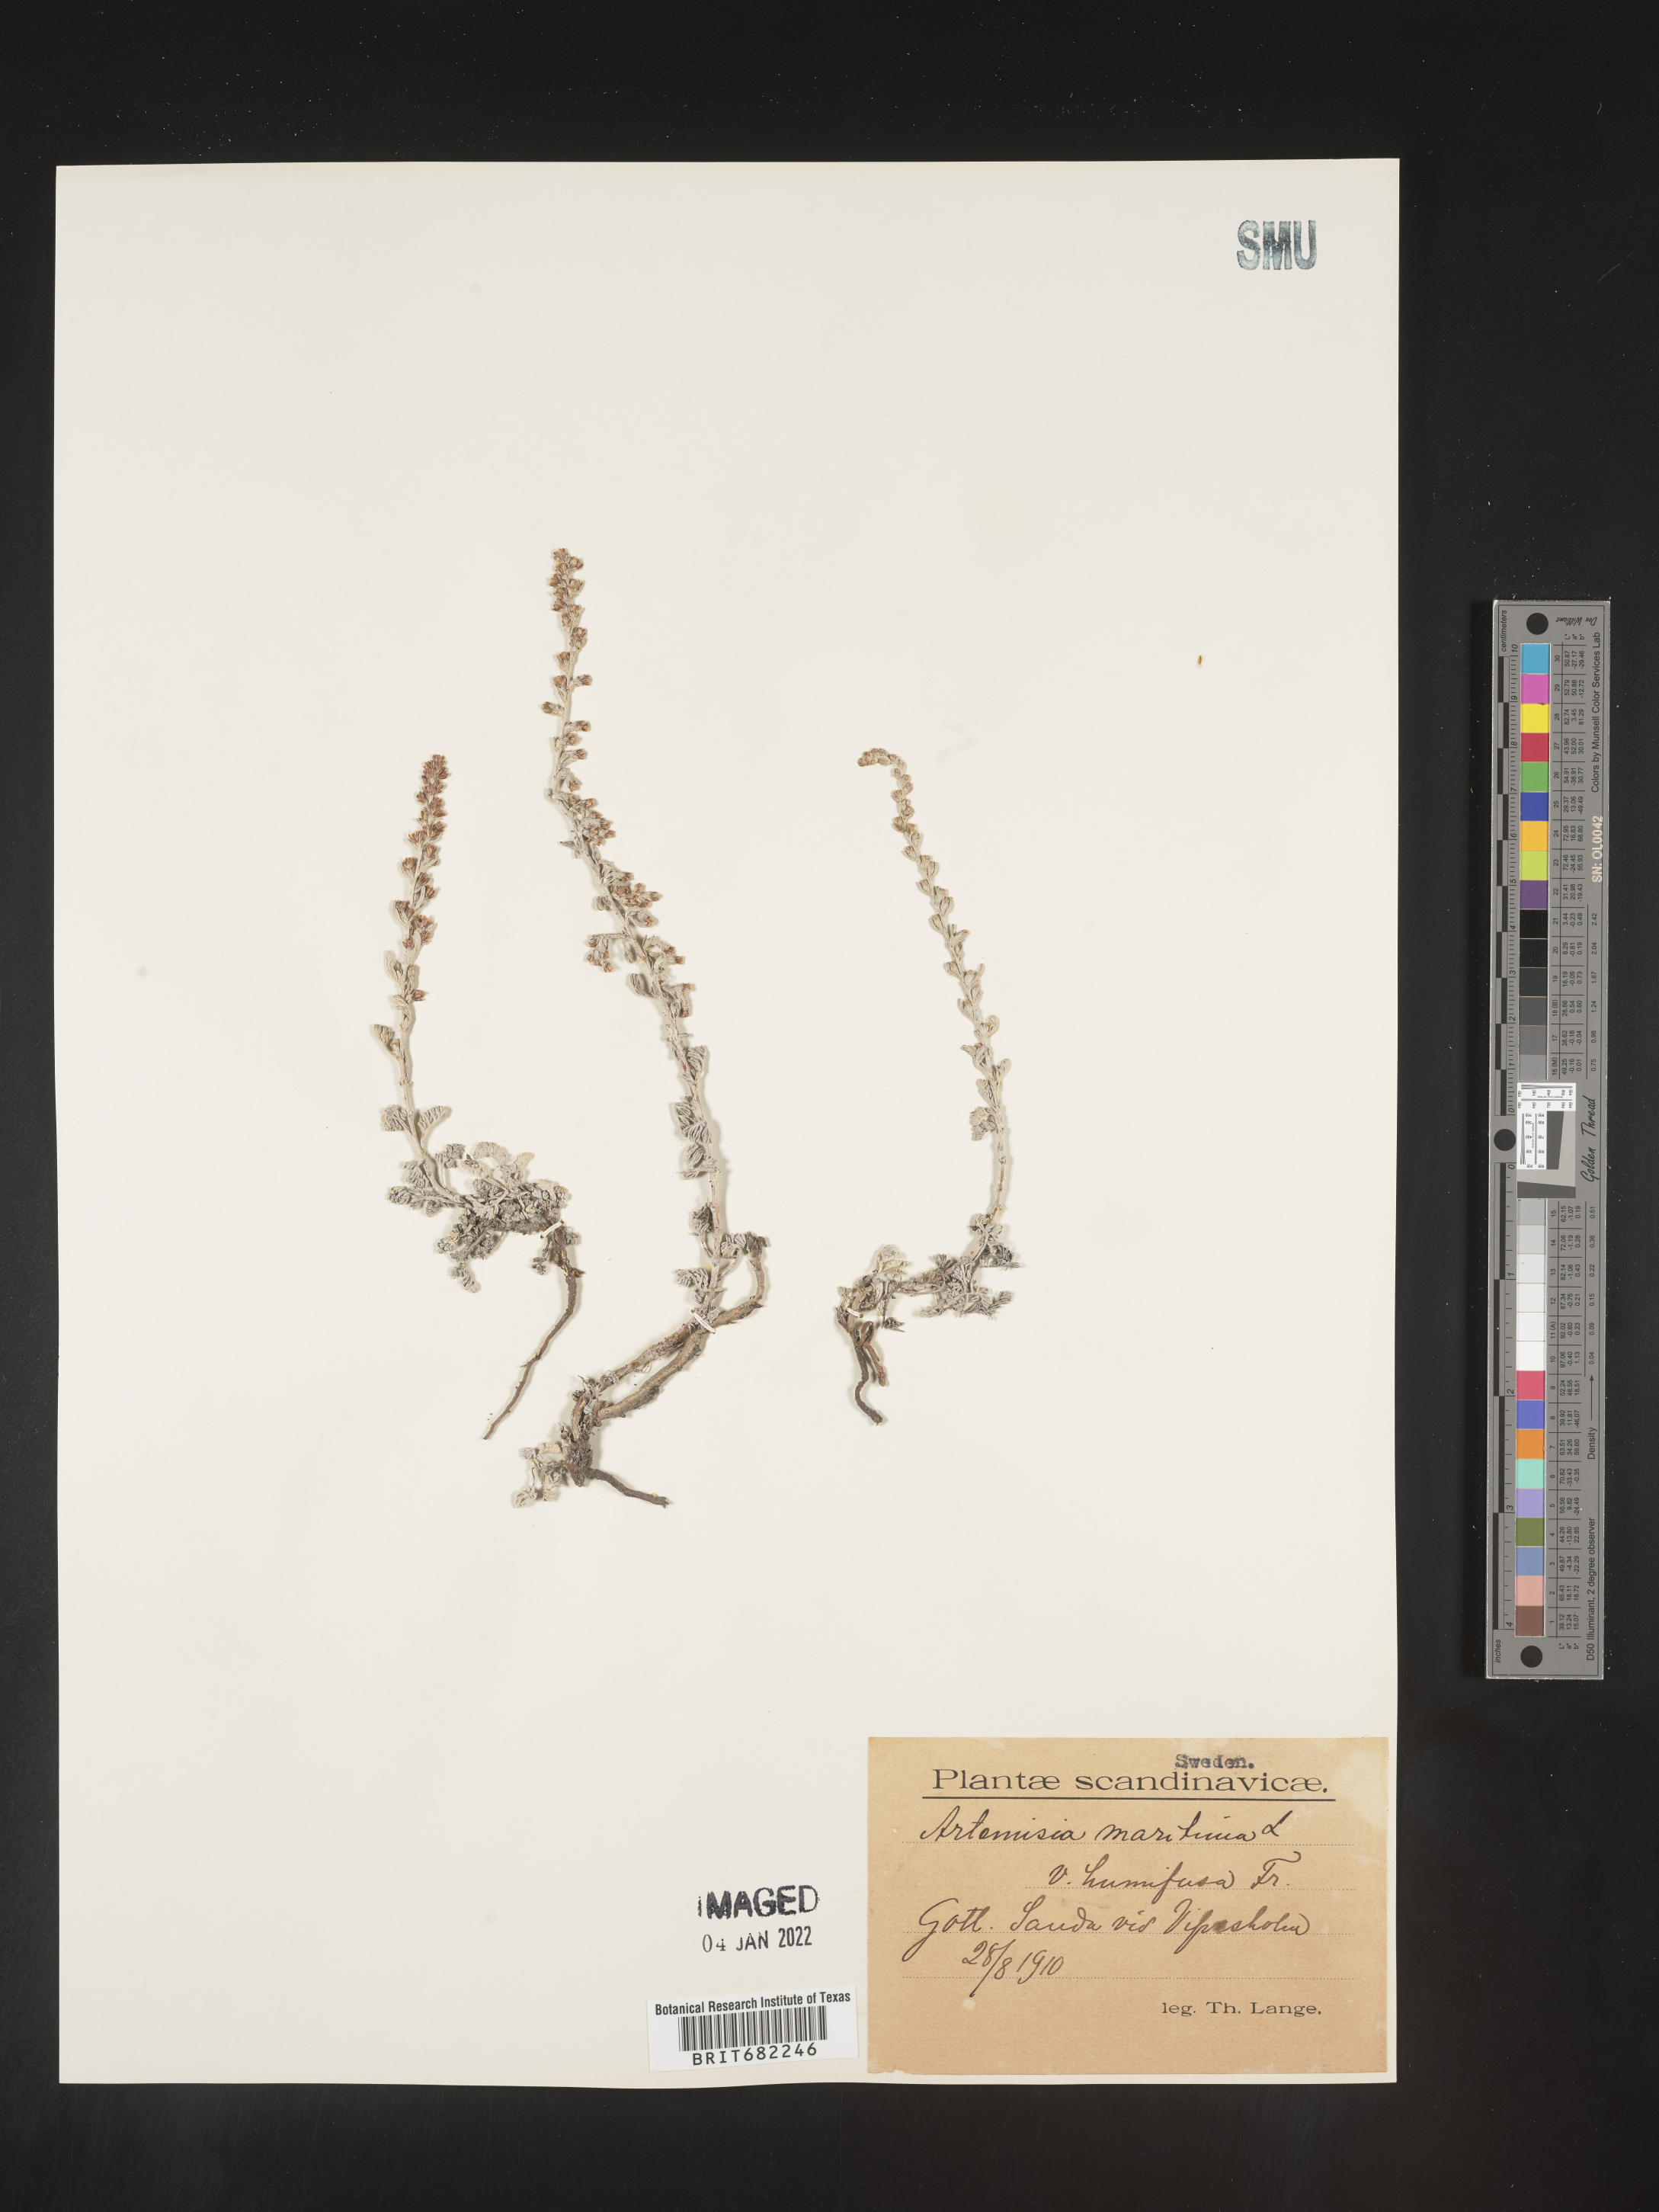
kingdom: Plantae
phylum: Tracheophyta
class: Magnoliopsida
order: Asterales
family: Asteraceae
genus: Artemisia
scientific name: Artemisia
